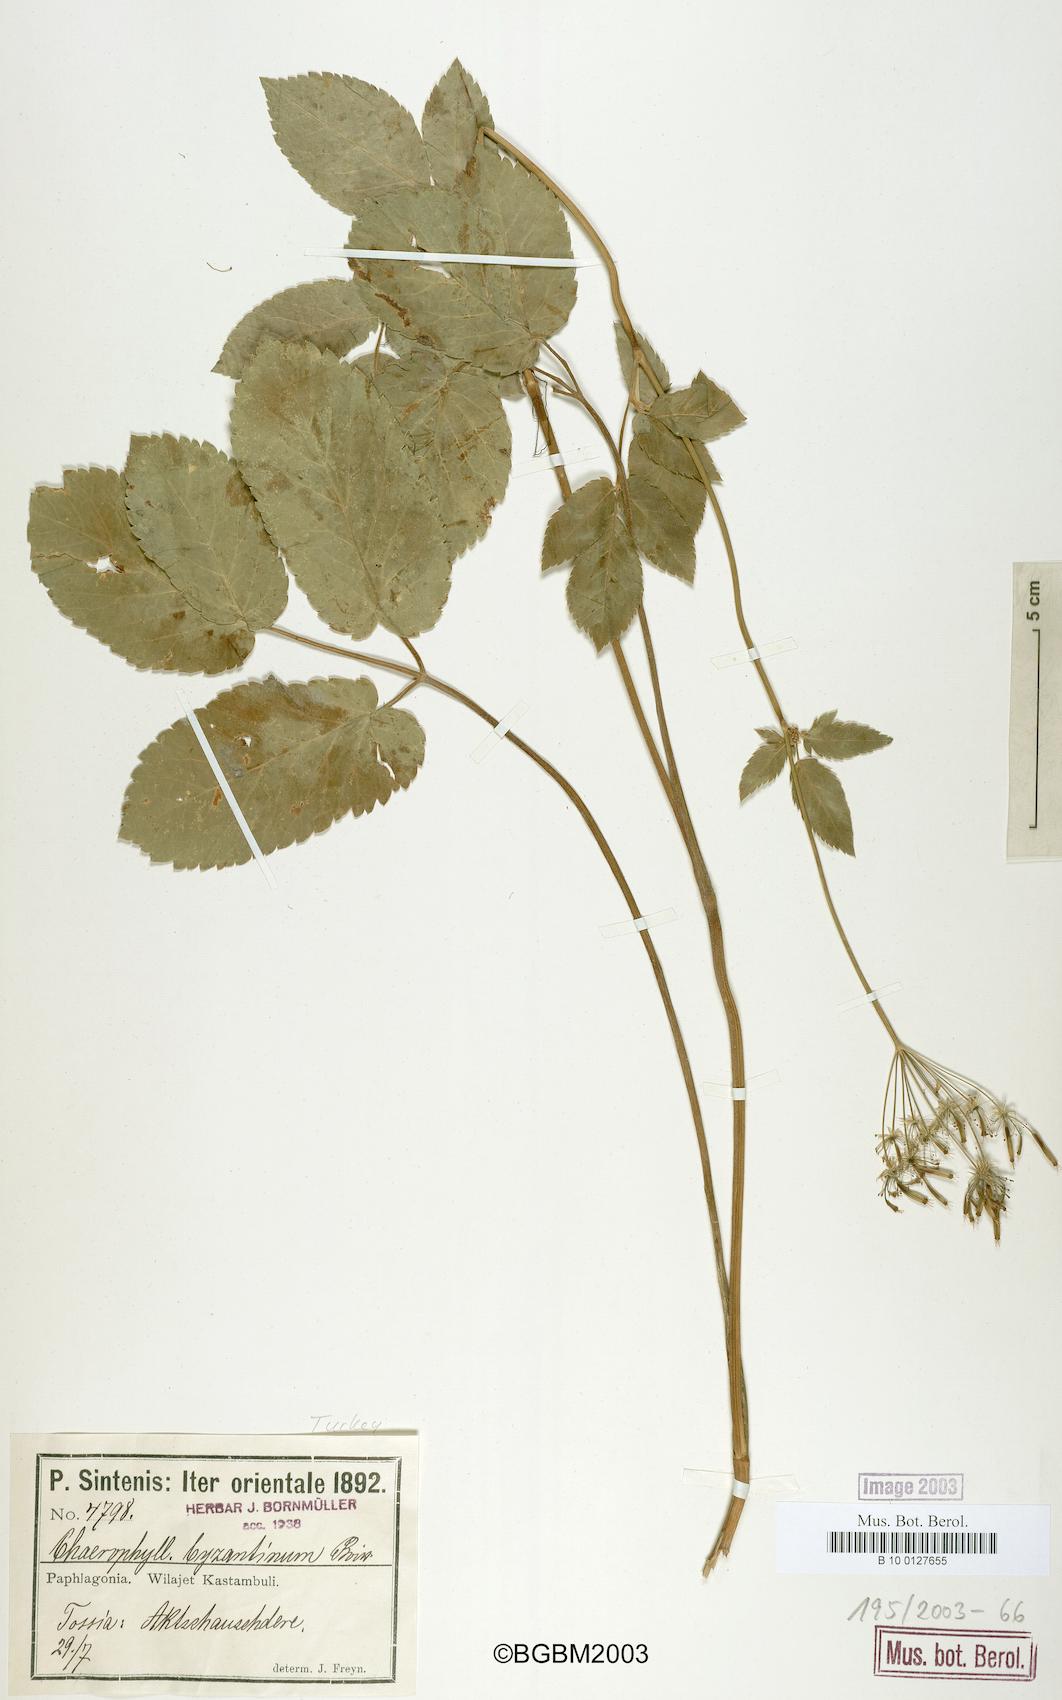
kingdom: Plantae
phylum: Tracheophyta
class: Magnoliopsida
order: Apiales
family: Apiaceae
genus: Chaerophyllum
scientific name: Chaerophyllum byzantinum
